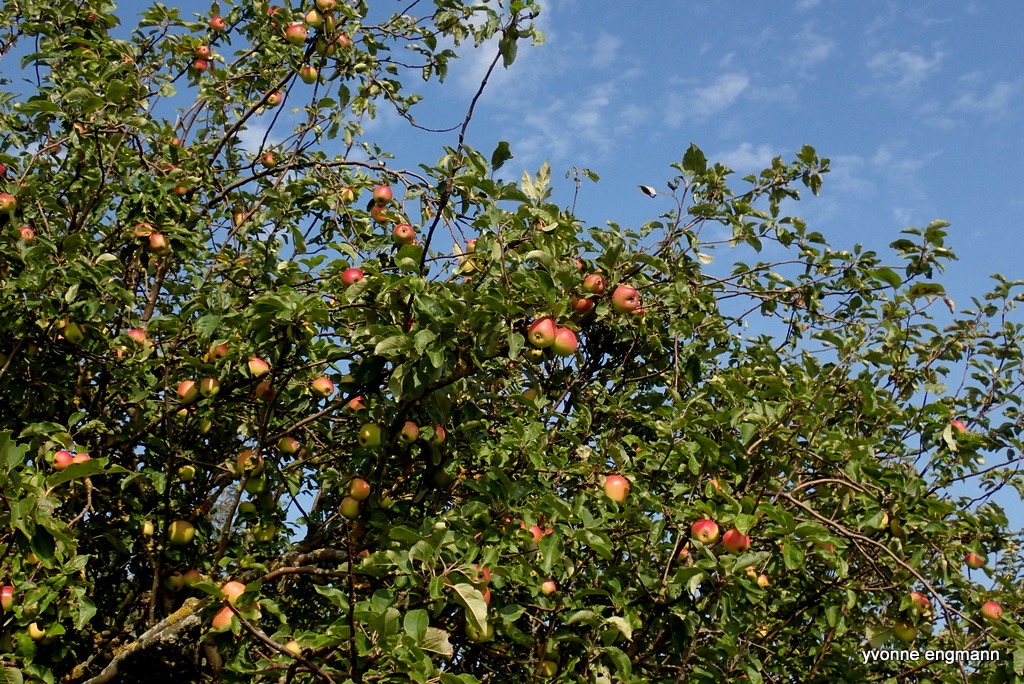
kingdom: Plantae
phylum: Tracheophyta
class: Magnoliopsida
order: Rosales
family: Rosaceae
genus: Malus
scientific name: Malus domestica
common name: Sød-æble
